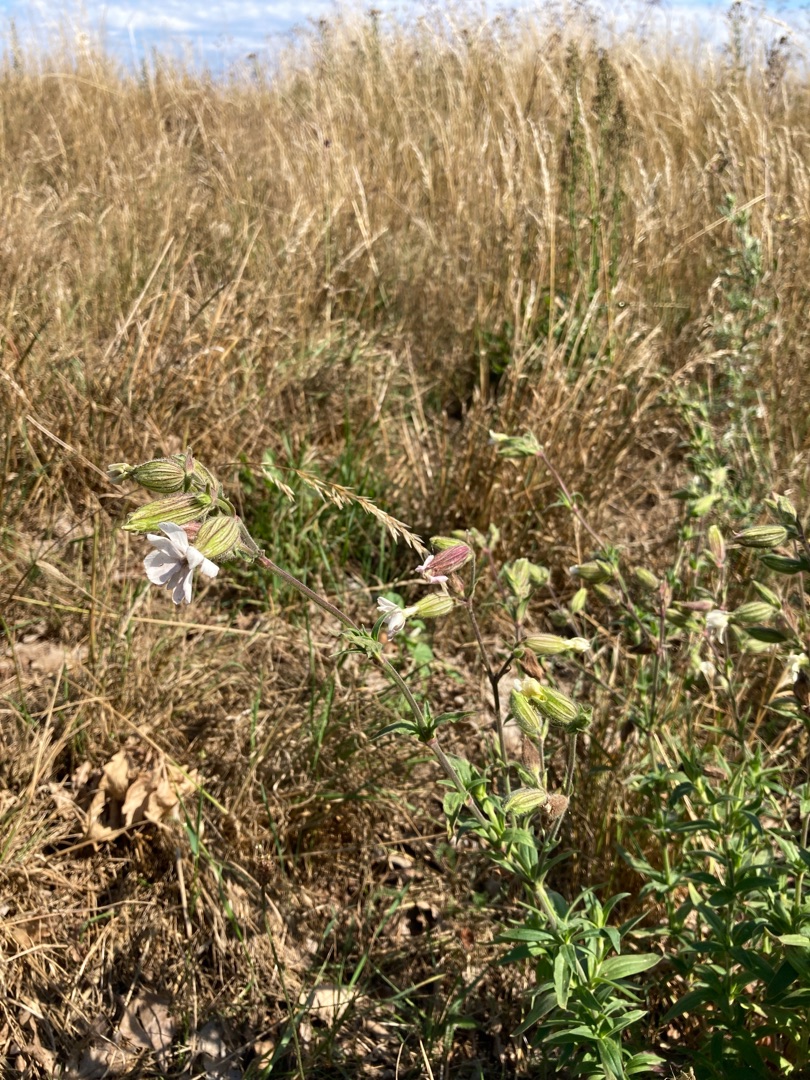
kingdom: Plantae
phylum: Tracheophyta
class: Magnoliopsida
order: Caryophyllales
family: Caryophyllaceae
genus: Silene
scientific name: Silene latifolia
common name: Aftenpragtstjerne
